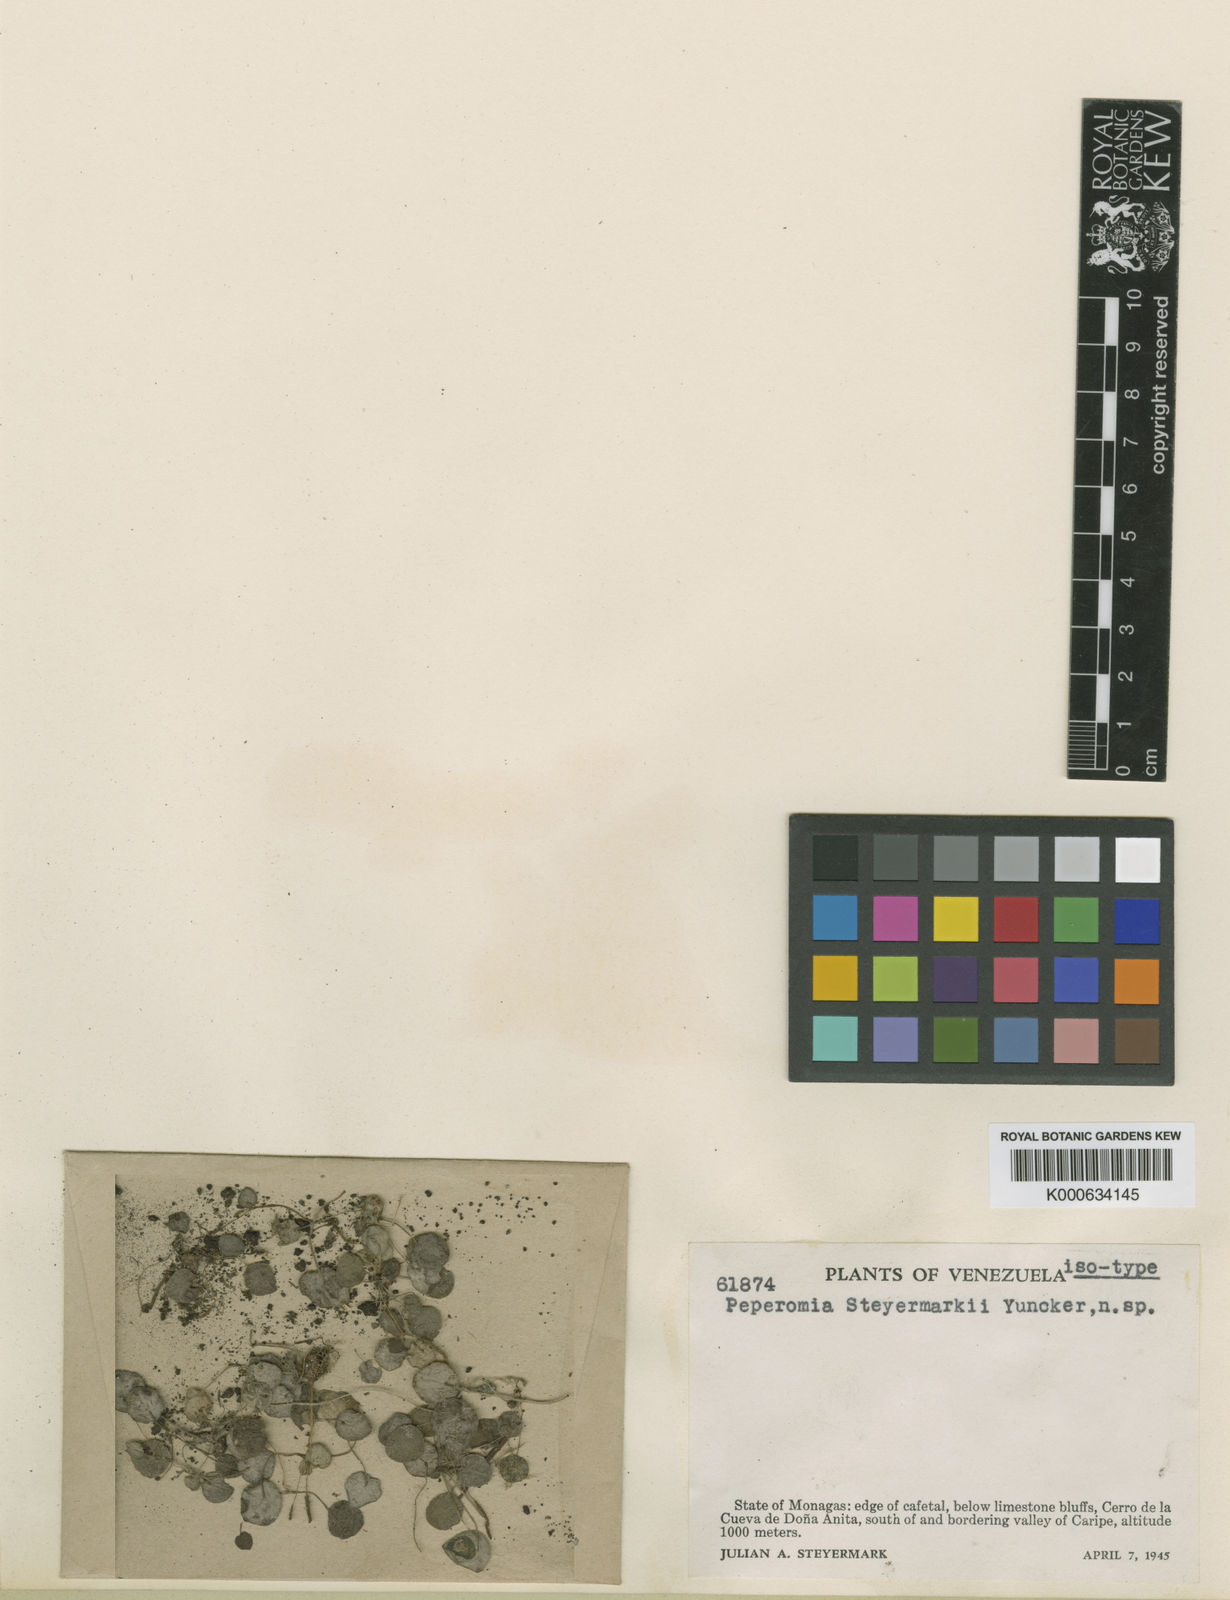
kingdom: Plantae
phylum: Tracheophyta
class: Magnoliopsida
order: Piperales
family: Piperaceae
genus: Peperomia
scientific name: Peperomia steyermarkii
